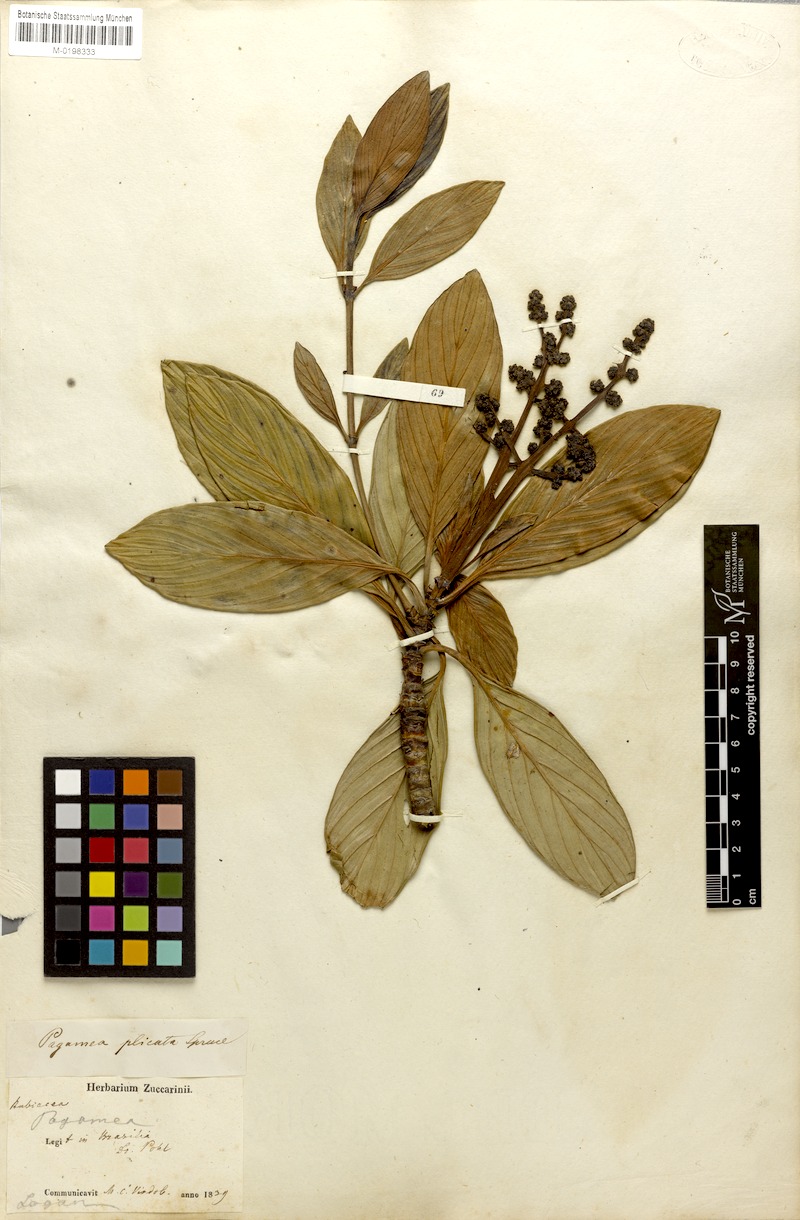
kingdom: Plantae
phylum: Tracheophyta
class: Magnoliopsida
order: Gentianales
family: Rubiaceae
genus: Pagamea
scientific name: Pagamea plicata
